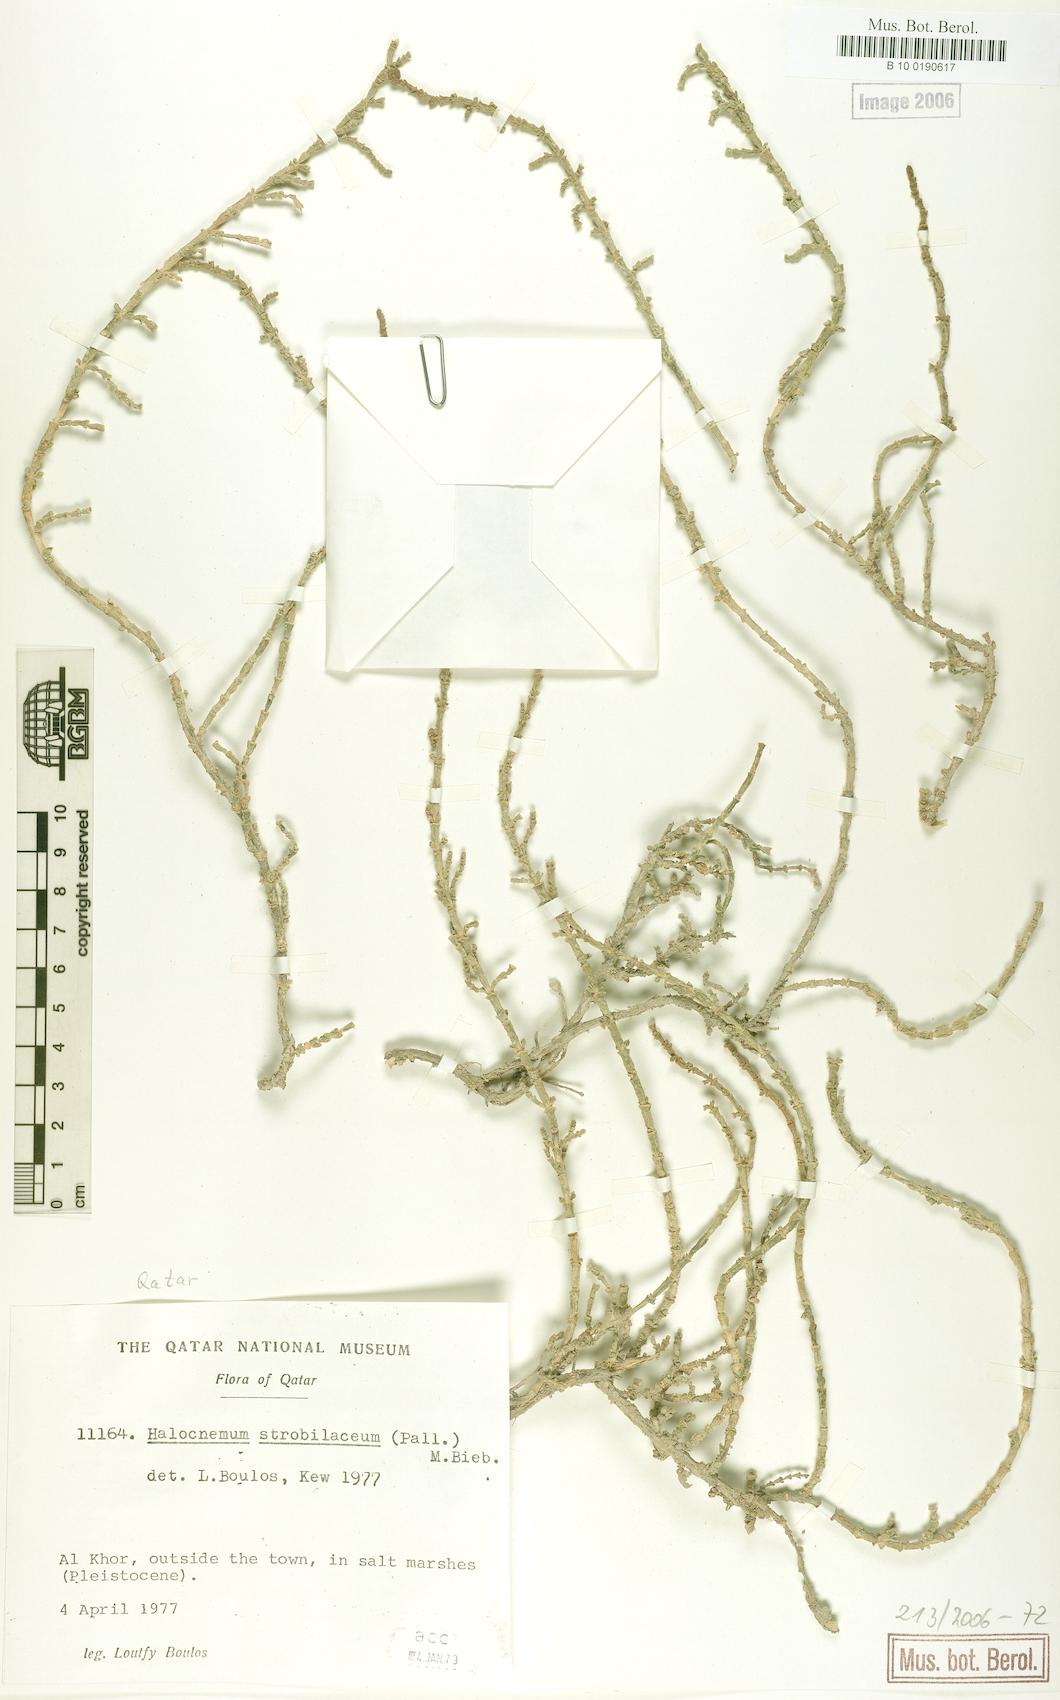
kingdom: Plantae
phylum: Tracheophyta
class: Magnoliopsida
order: Caryophyllales
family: Amaranthaceae
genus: Halocnemum
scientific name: Halocnemum strobilaceum
